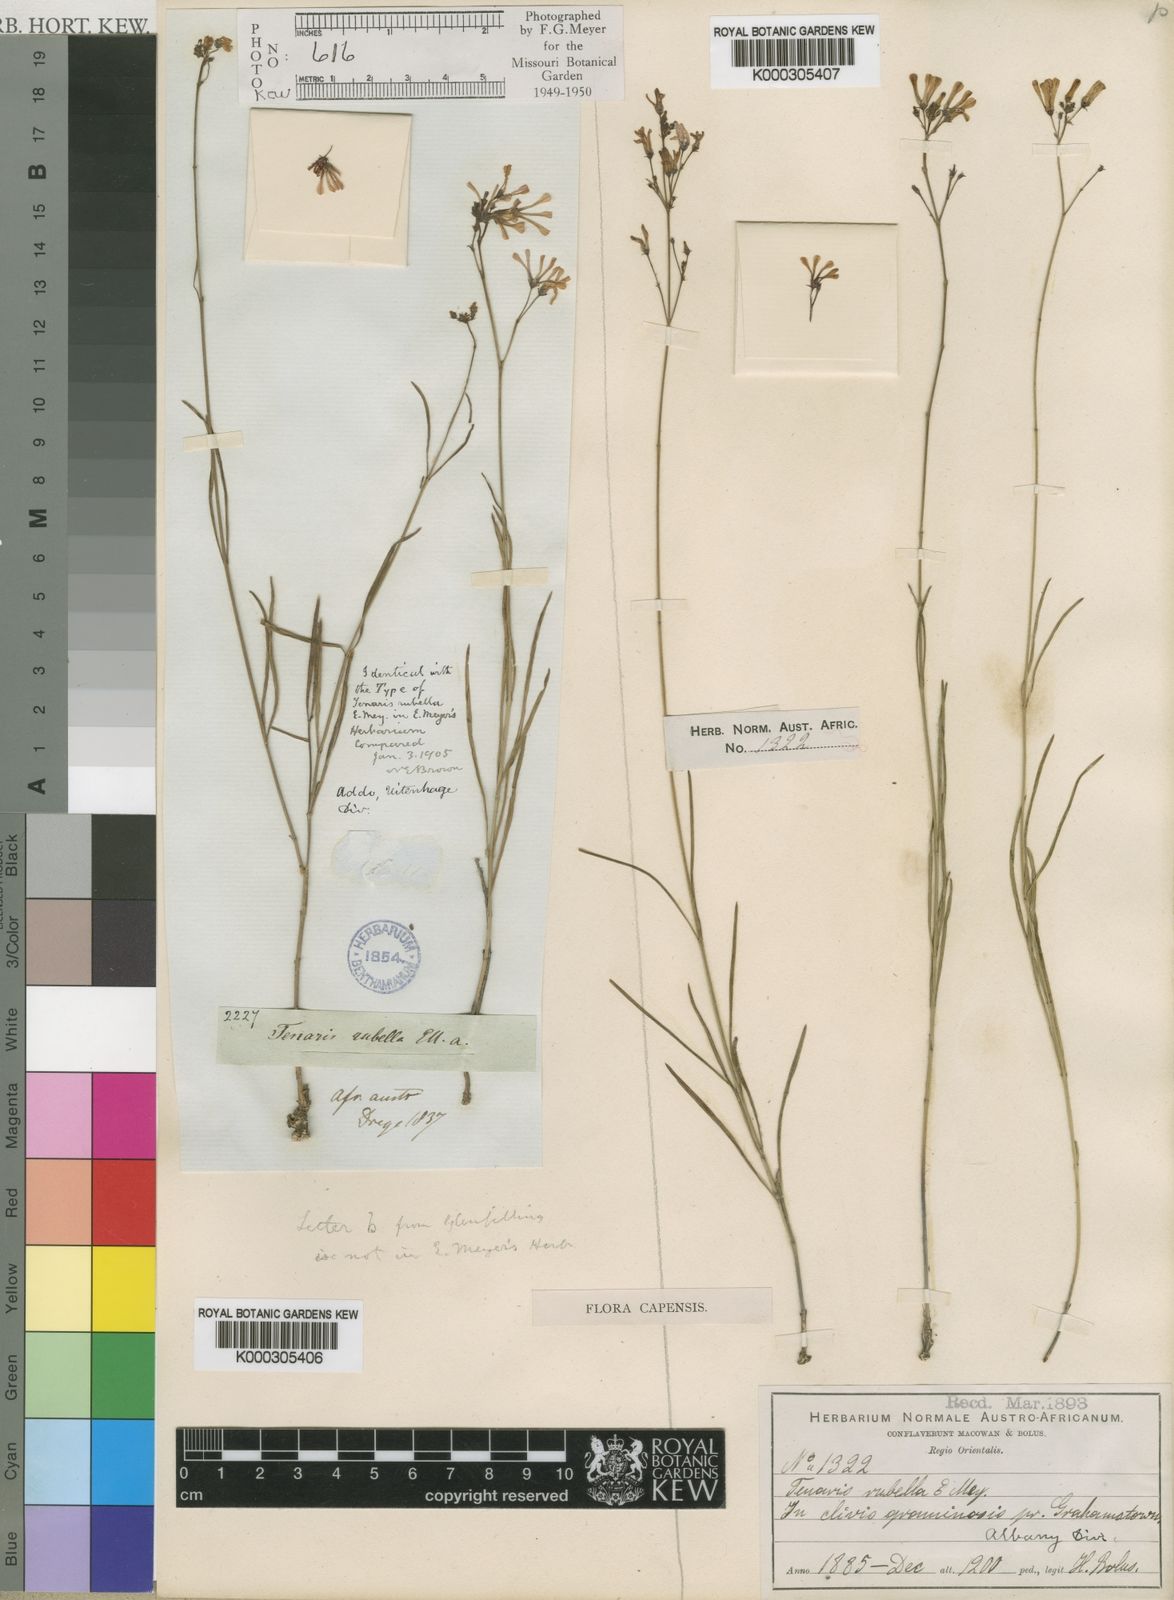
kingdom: Plantae
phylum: Tracheophyta
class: Magnoliopsida
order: Gentianales
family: Apocynaceae
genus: Ceropegia
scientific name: Ceropegia rubella
